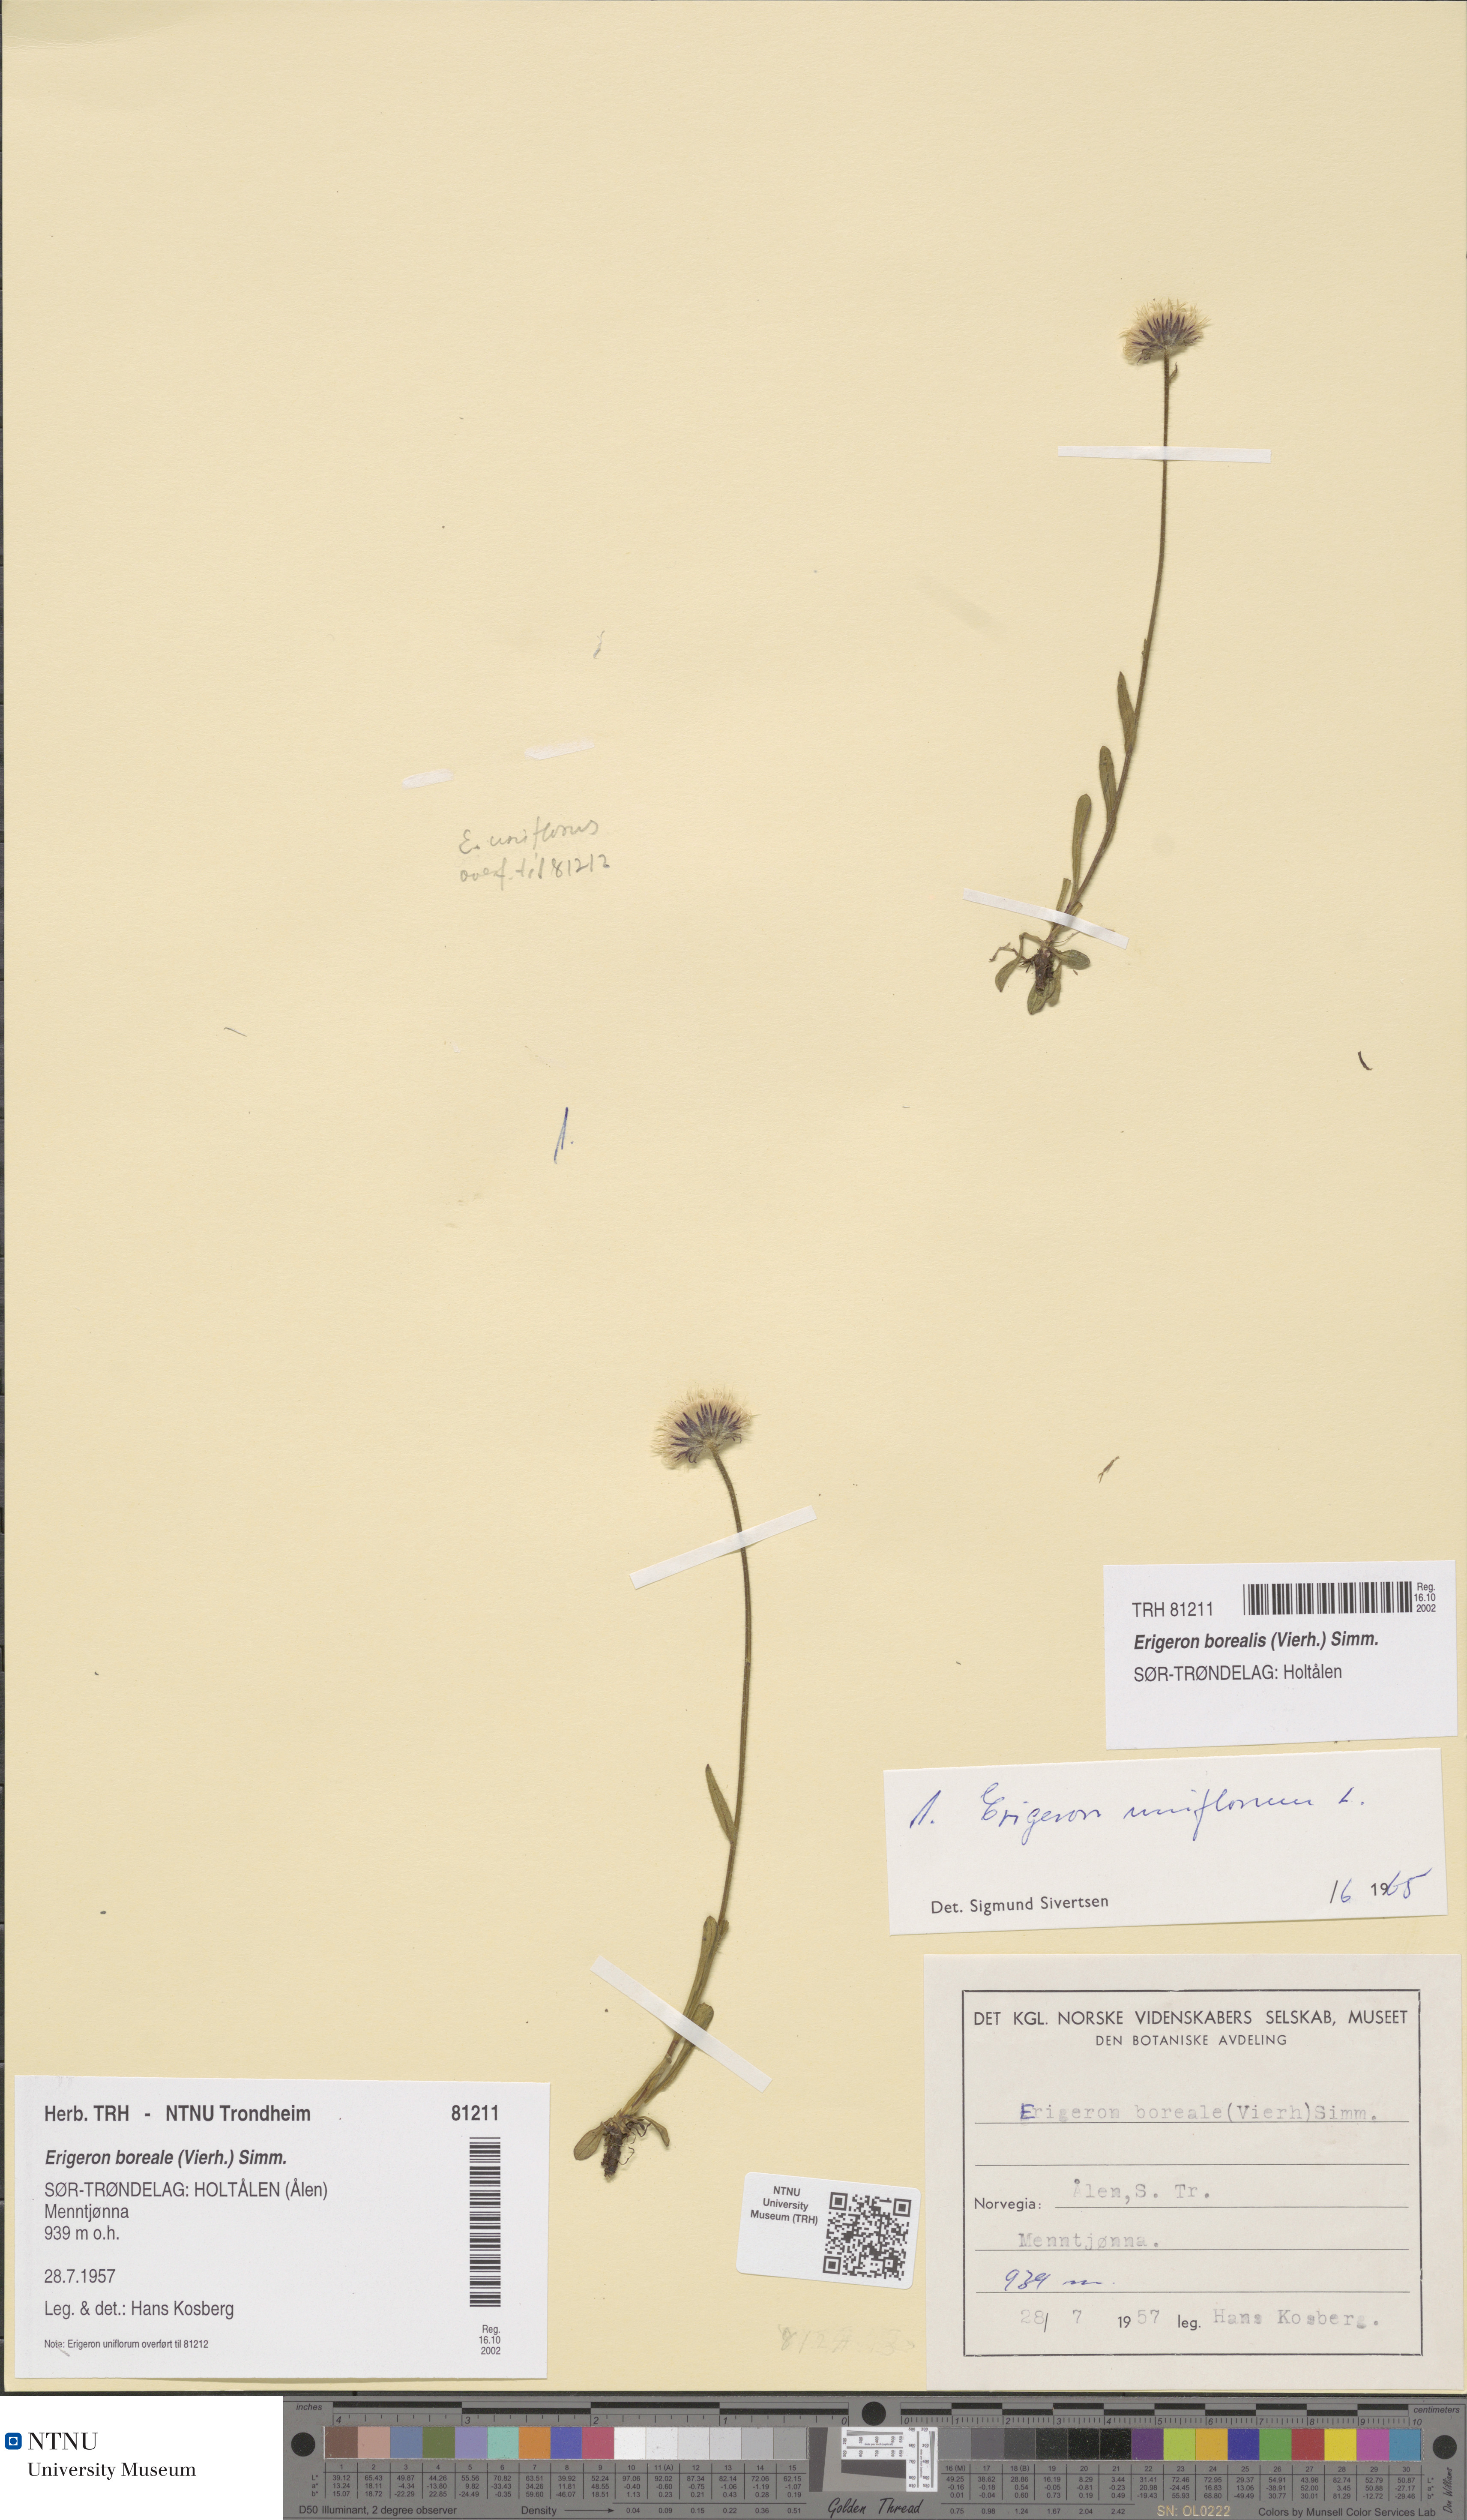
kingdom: Plantae
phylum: Tracheophyta
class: Magnoliopsida
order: Asterales
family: Asteraceae
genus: Erigeron
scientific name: Erigeron borealis
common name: Alpine fleabane
